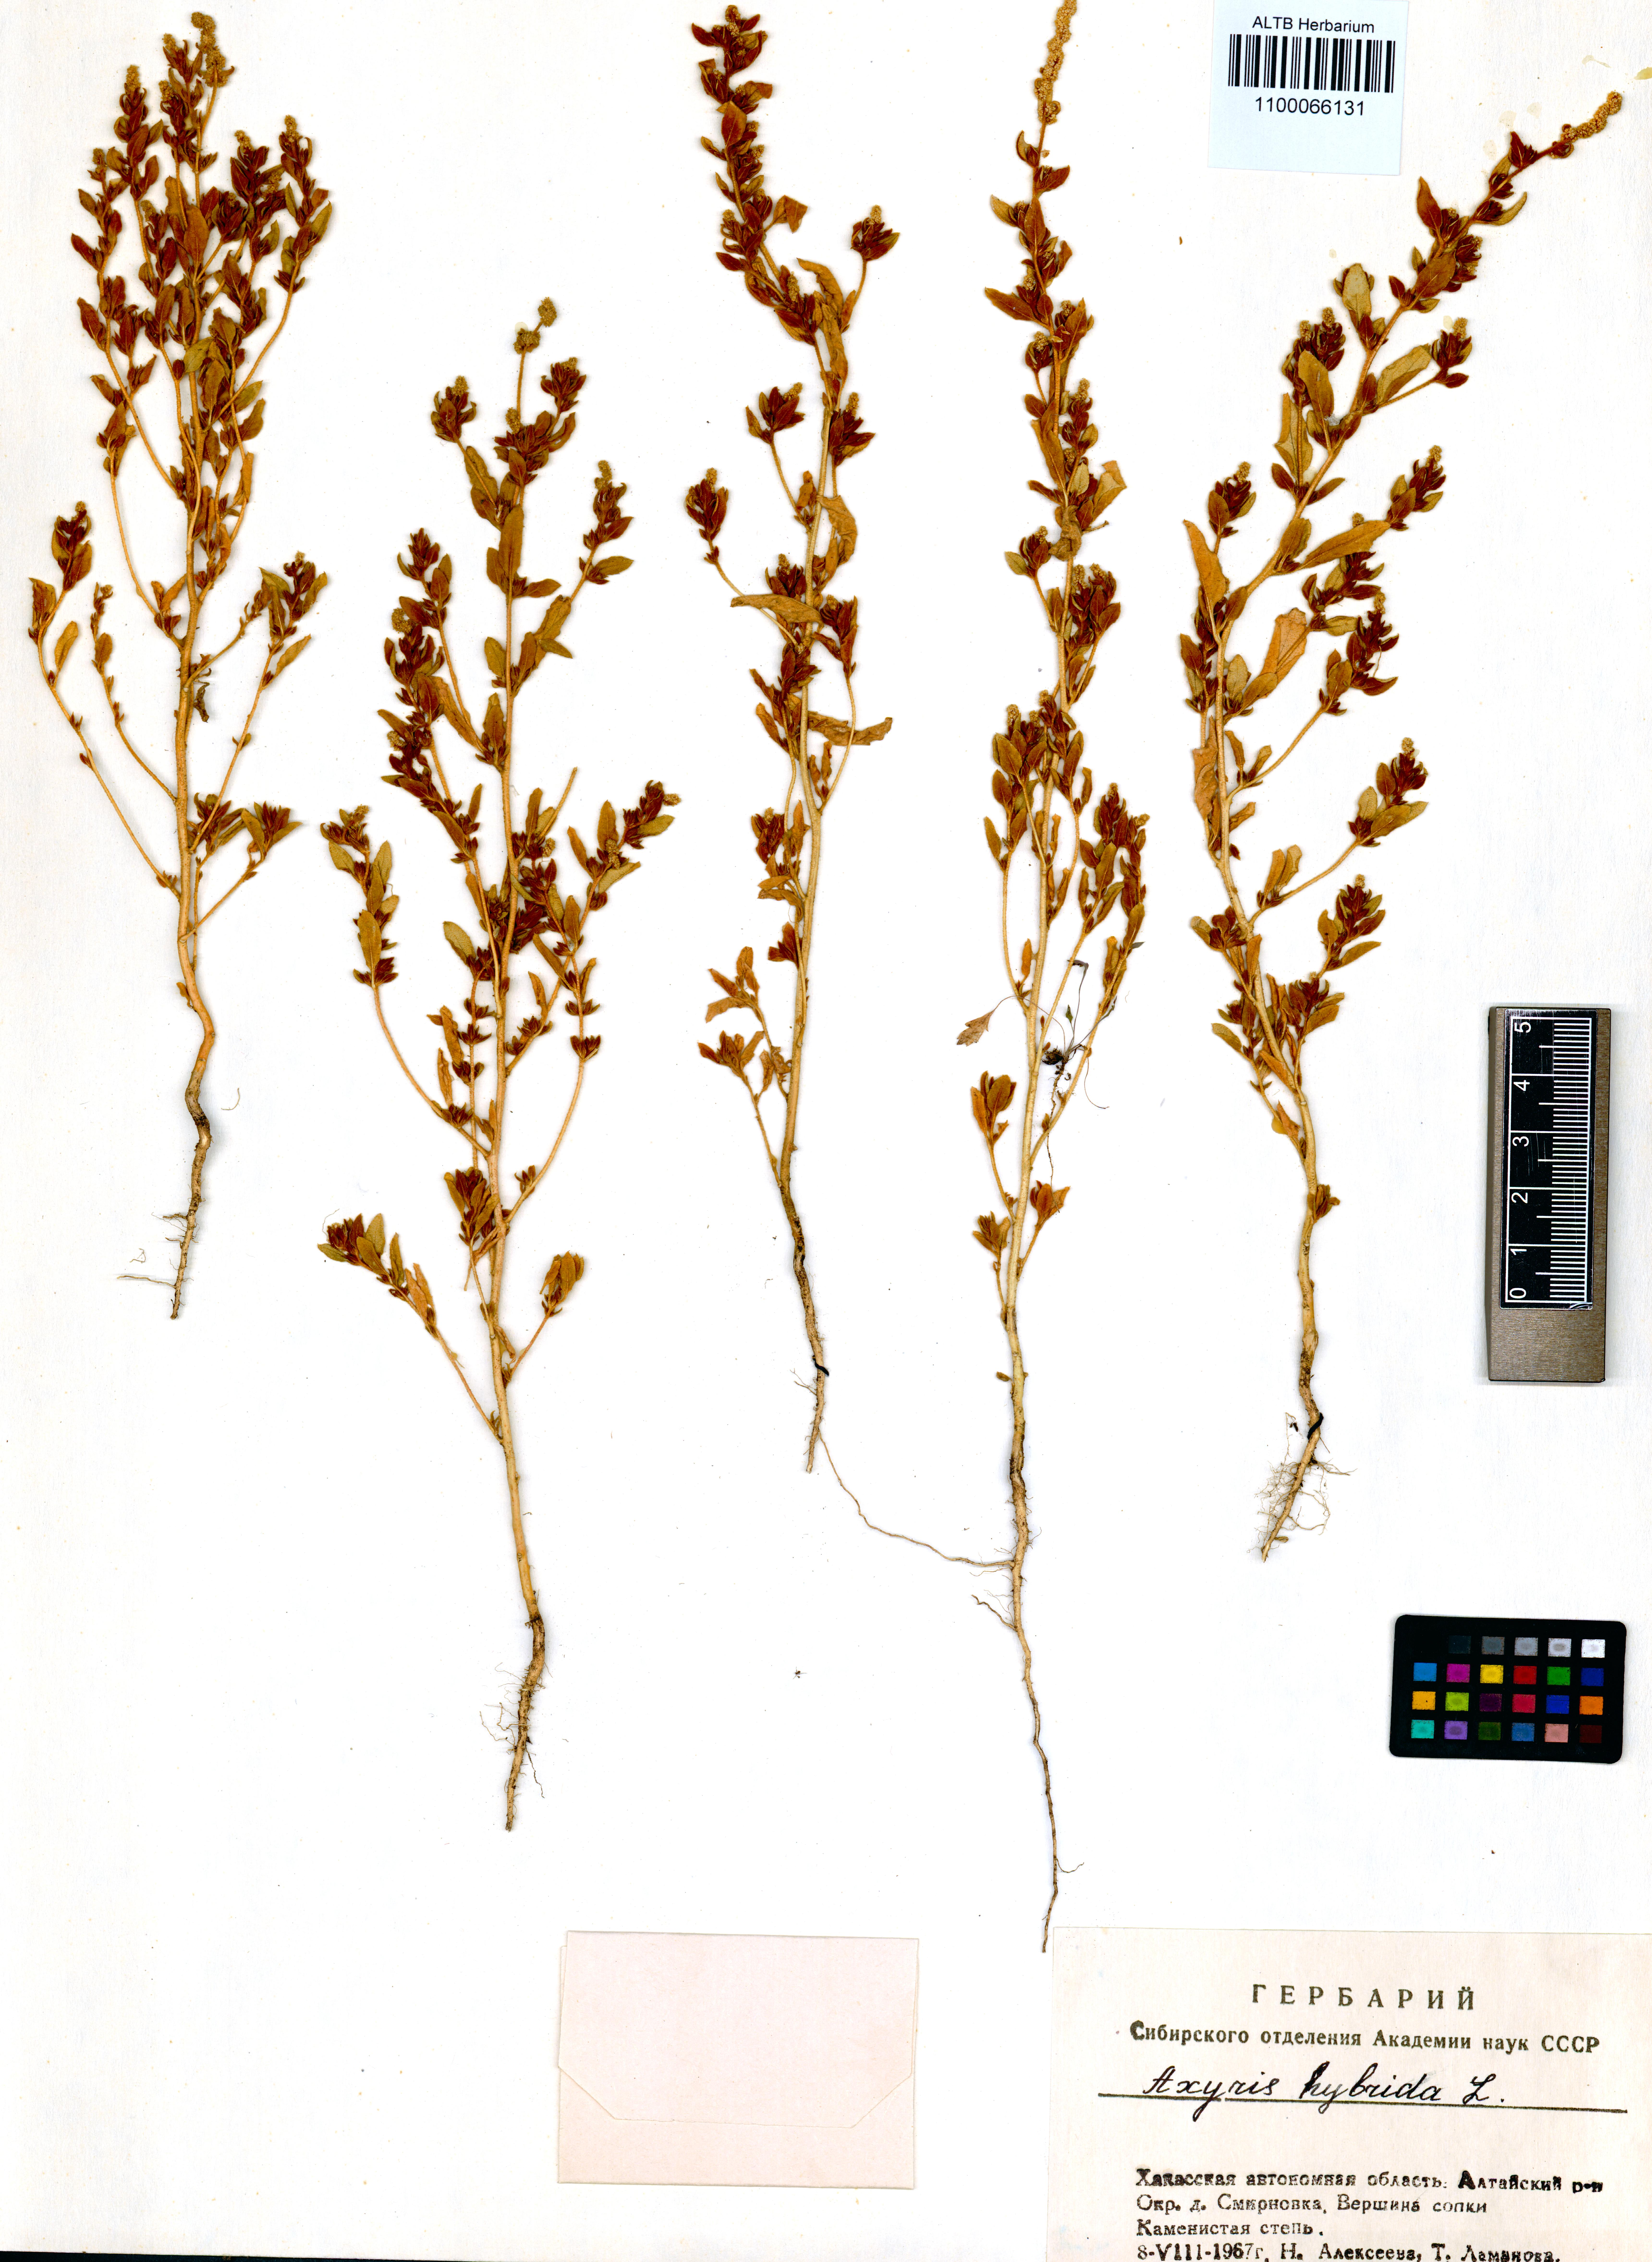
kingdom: Plantae
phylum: Tracheophyta
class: Magnoliopsida
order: Caryophyllales
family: Amaranthaceae
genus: Axyris
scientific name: Axyris hybrida
